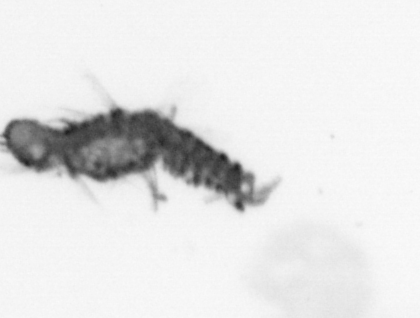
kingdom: Animalia
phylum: Annelida
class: Polychaeta
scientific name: Polychaeta
